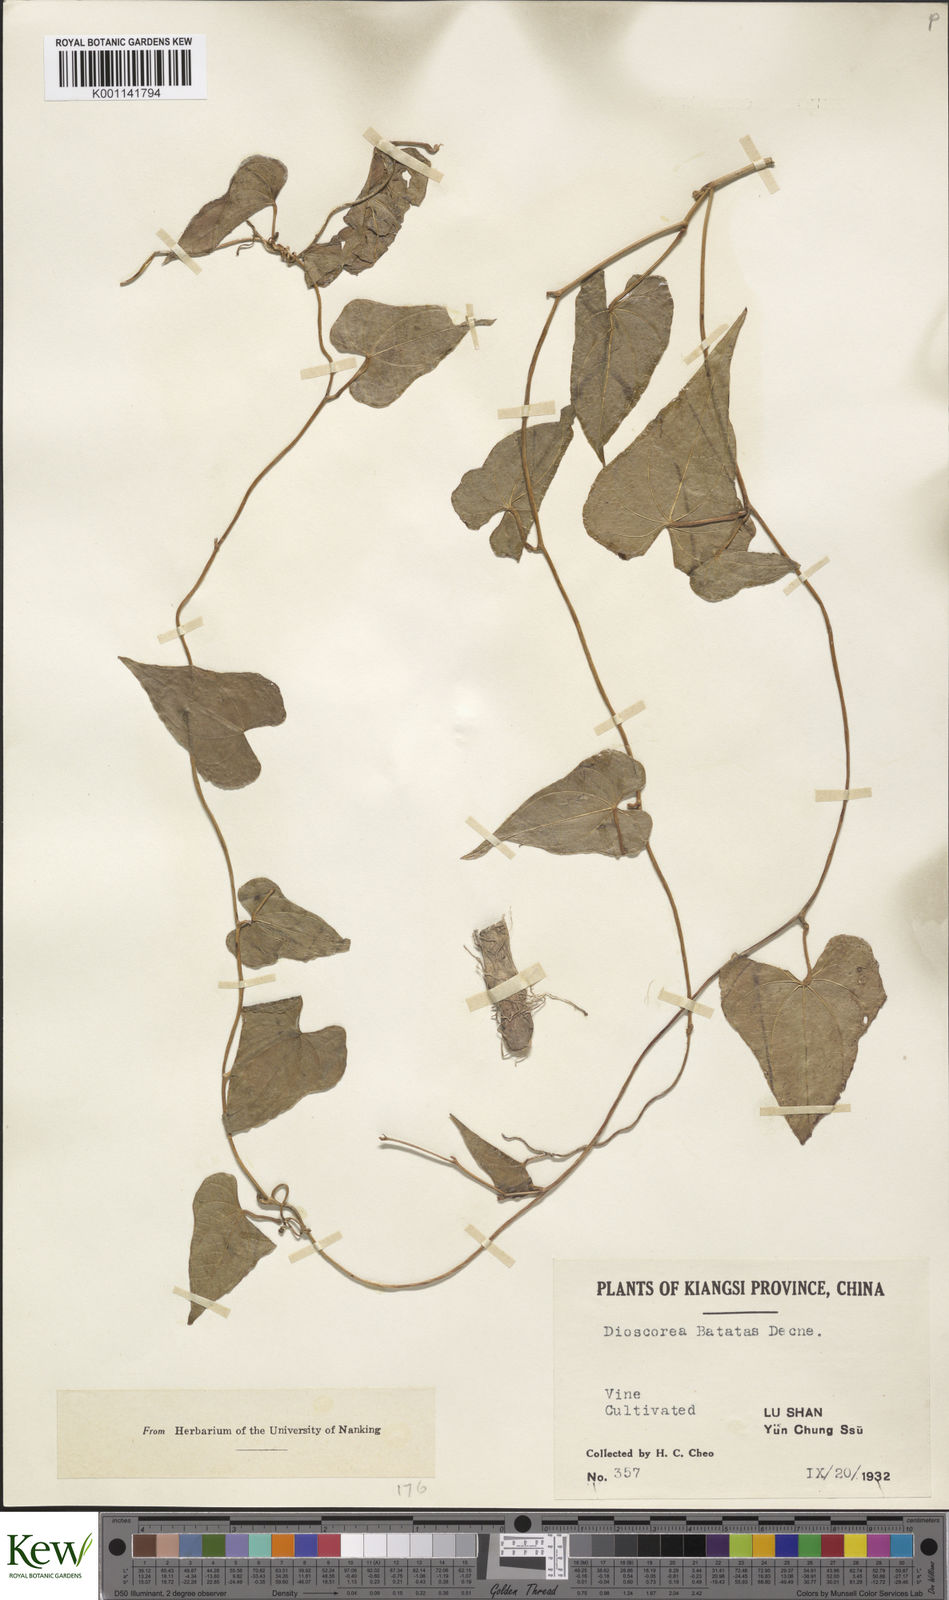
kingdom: Plantae
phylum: Tracheophyta
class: Liliopsida
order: Dioscoreales
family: Dioscoreaceae
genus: Dioscorea
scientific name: Dioscorea oppositifolia
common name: Chinese yam
